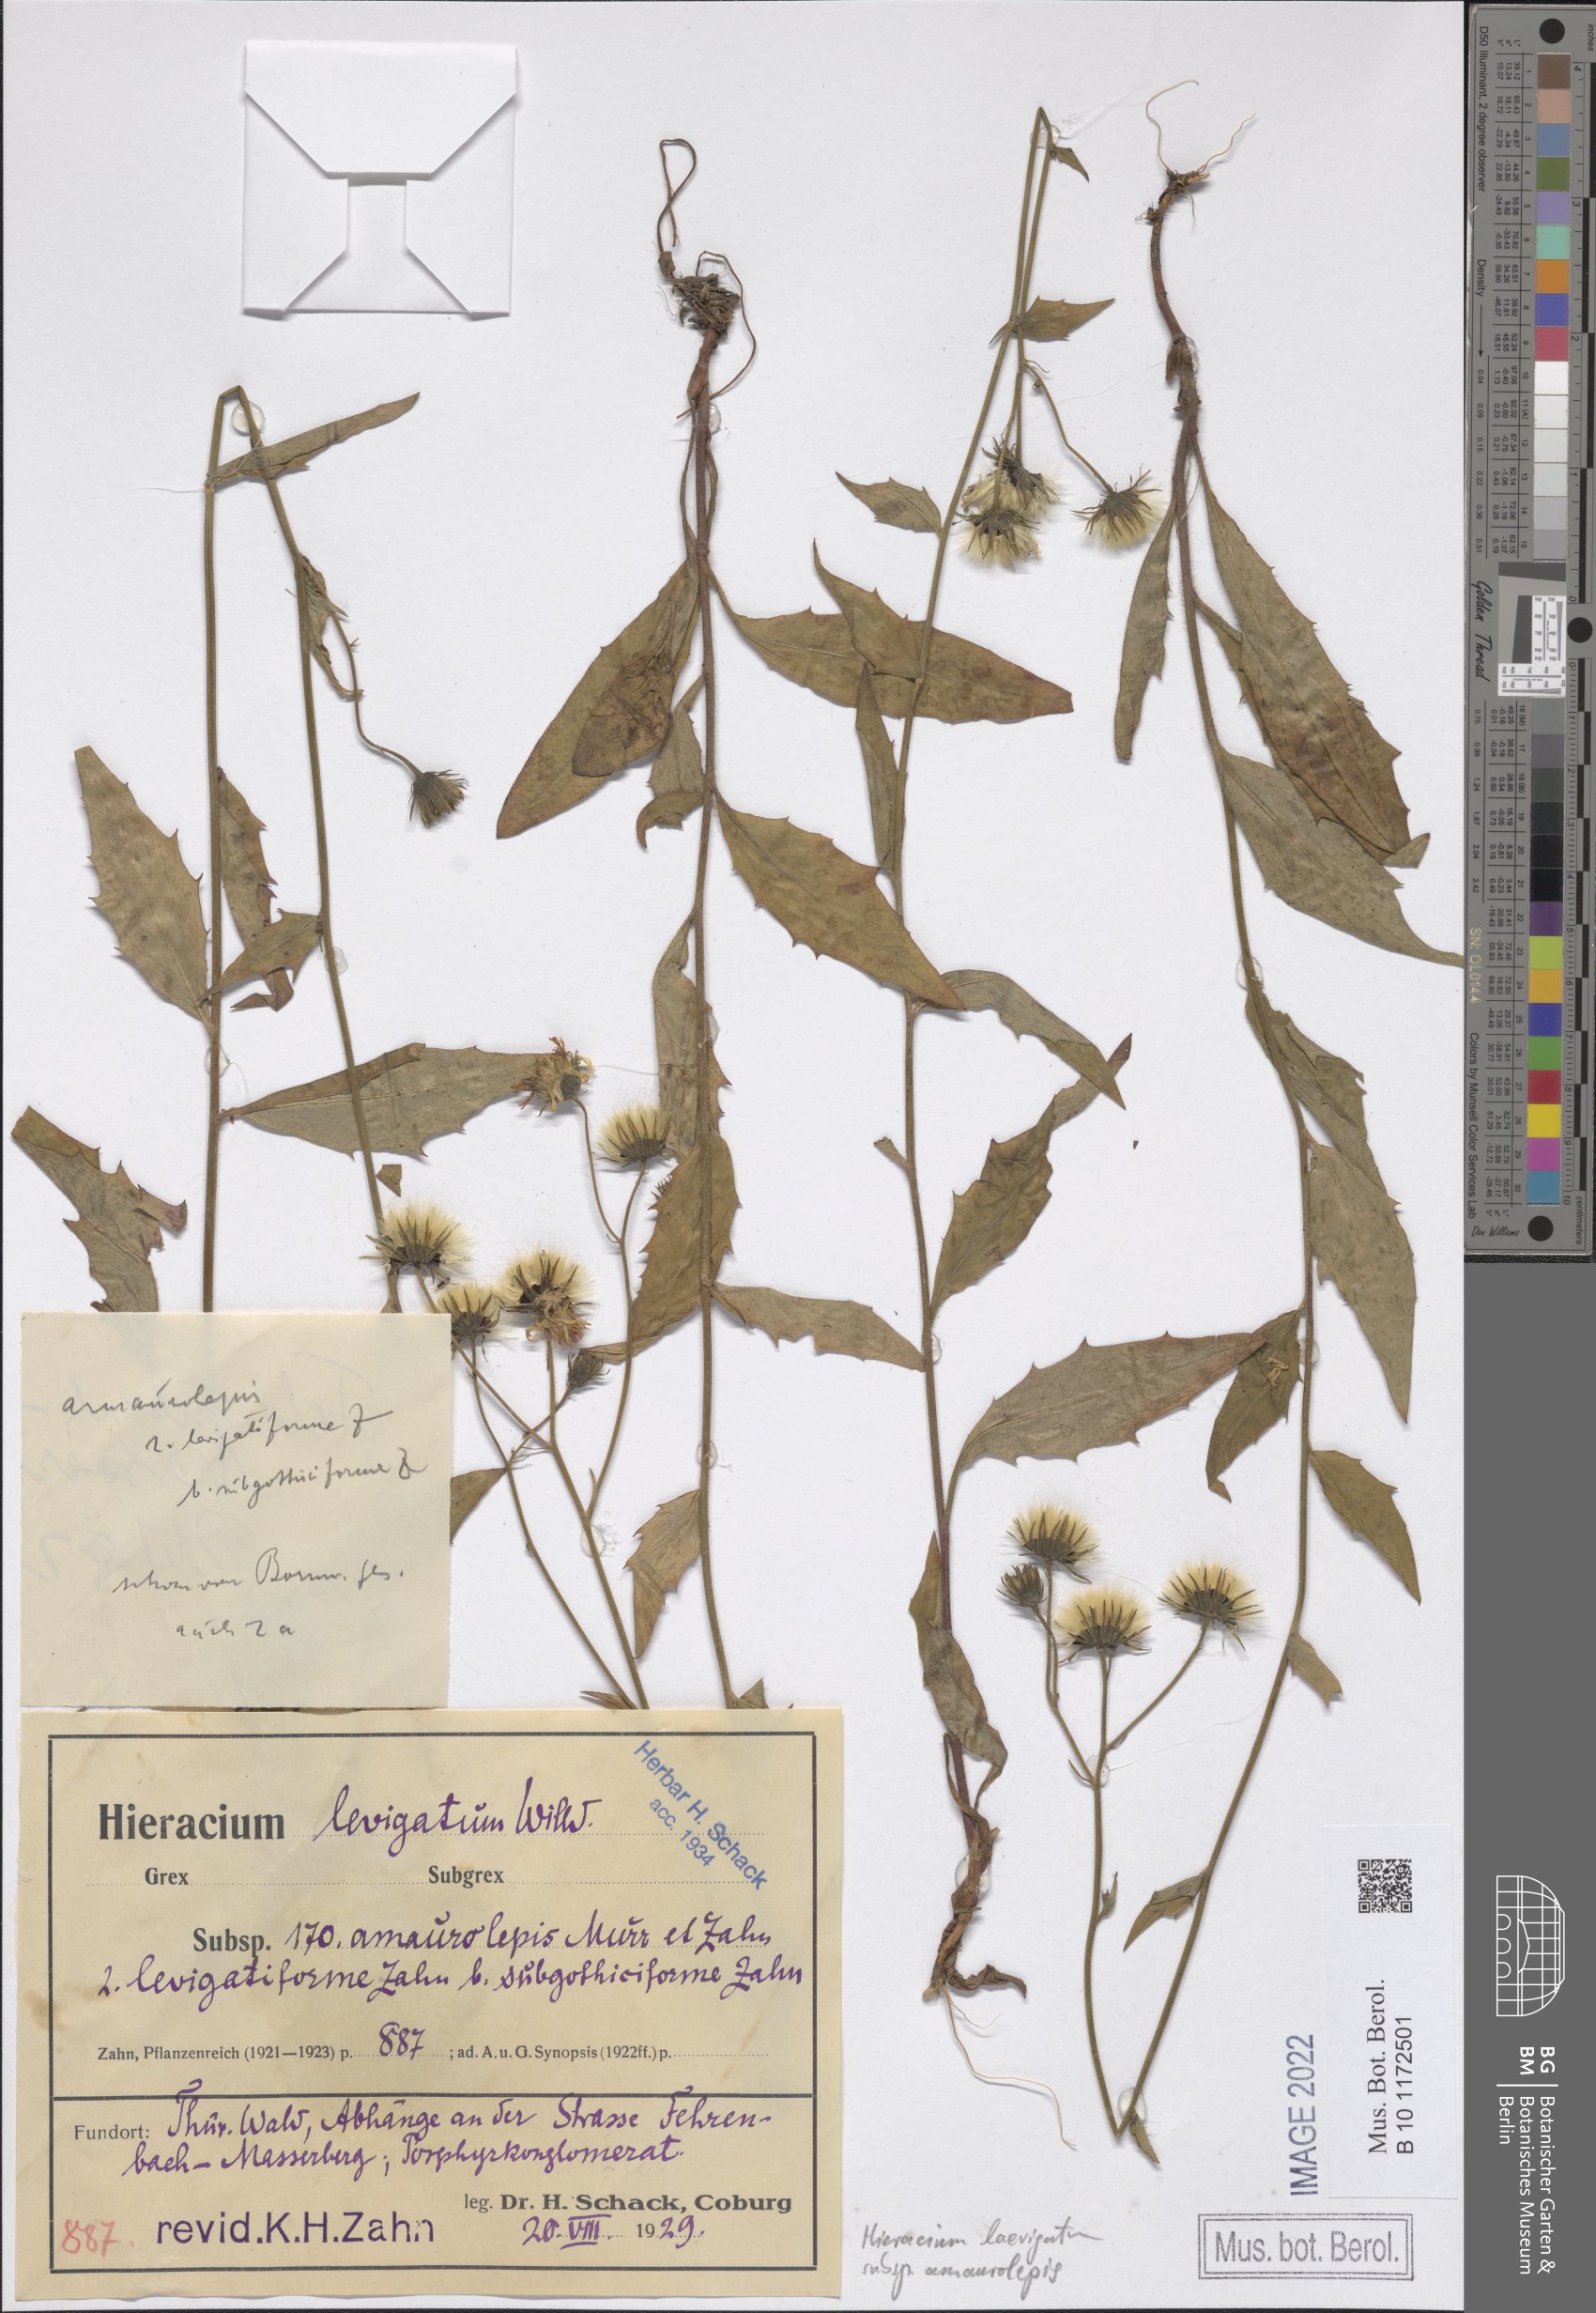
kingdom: Plantae
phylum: Tracheophyta
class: Magnoliopsida
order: Asterales
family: Asteraceae
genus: Hieracium
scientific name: Hieracium laevigatum
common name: Smooth hawkweed
